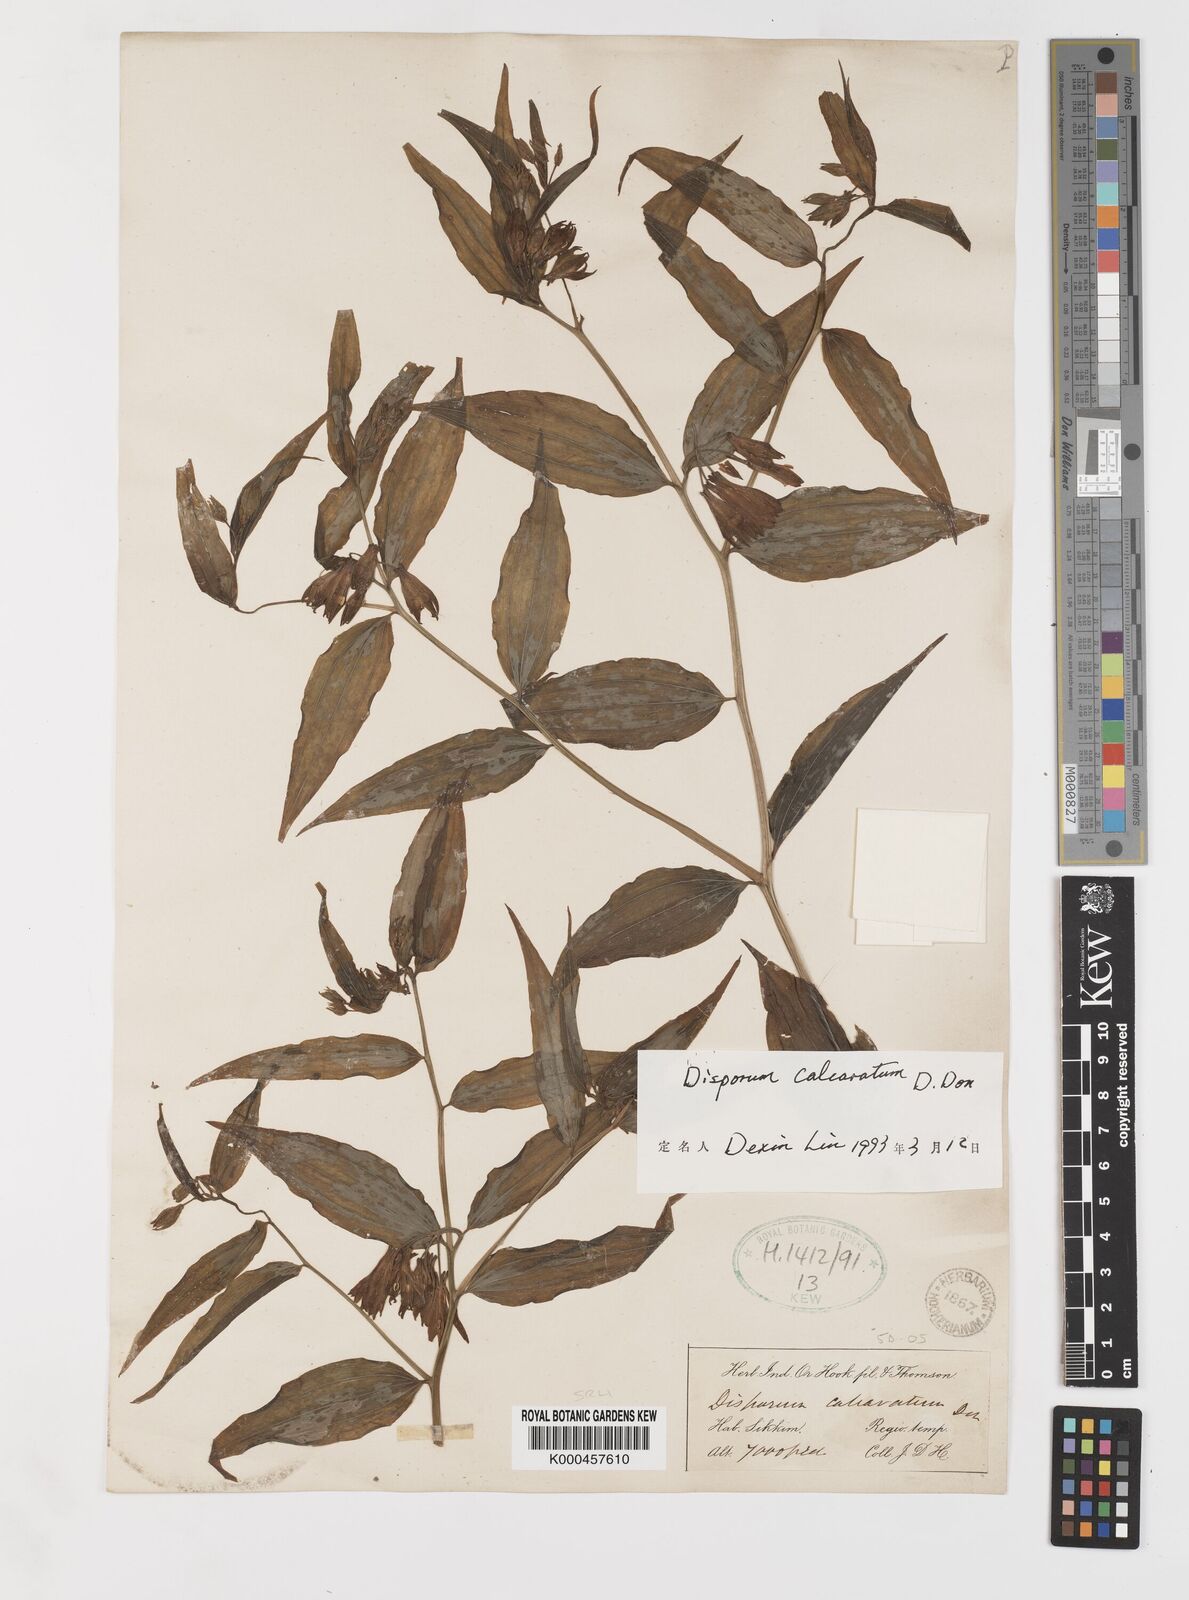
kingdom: Plantae
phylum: Tracheophyta
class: Liliopsida
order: Liliales
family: Colchicaceae
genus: Disporum
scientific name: Disporum calcaratum
